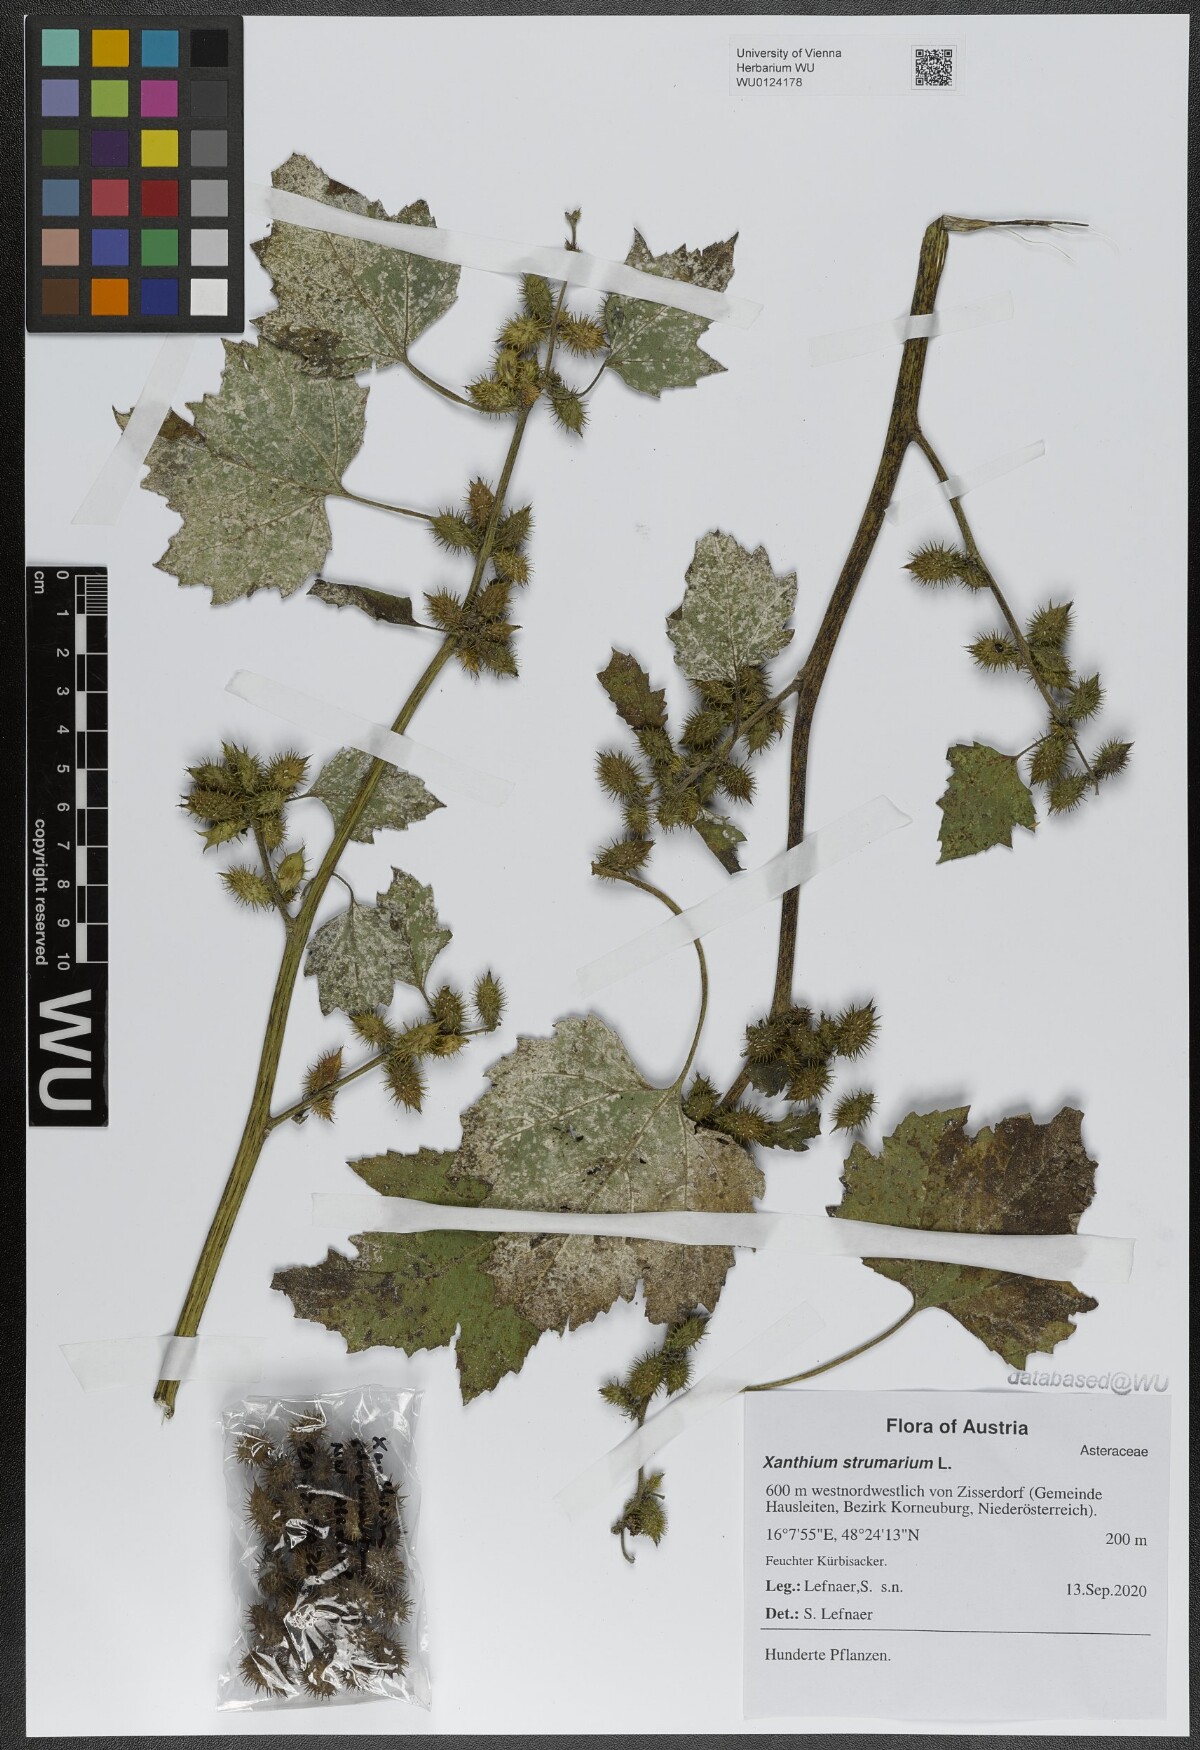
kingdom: Plantae
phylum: Tracheophyta
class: Magnoliopsida
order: Asterales
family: Asteraceae
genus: Xanthium
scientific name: Xanthium strumarium
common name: Rough cocklebur
